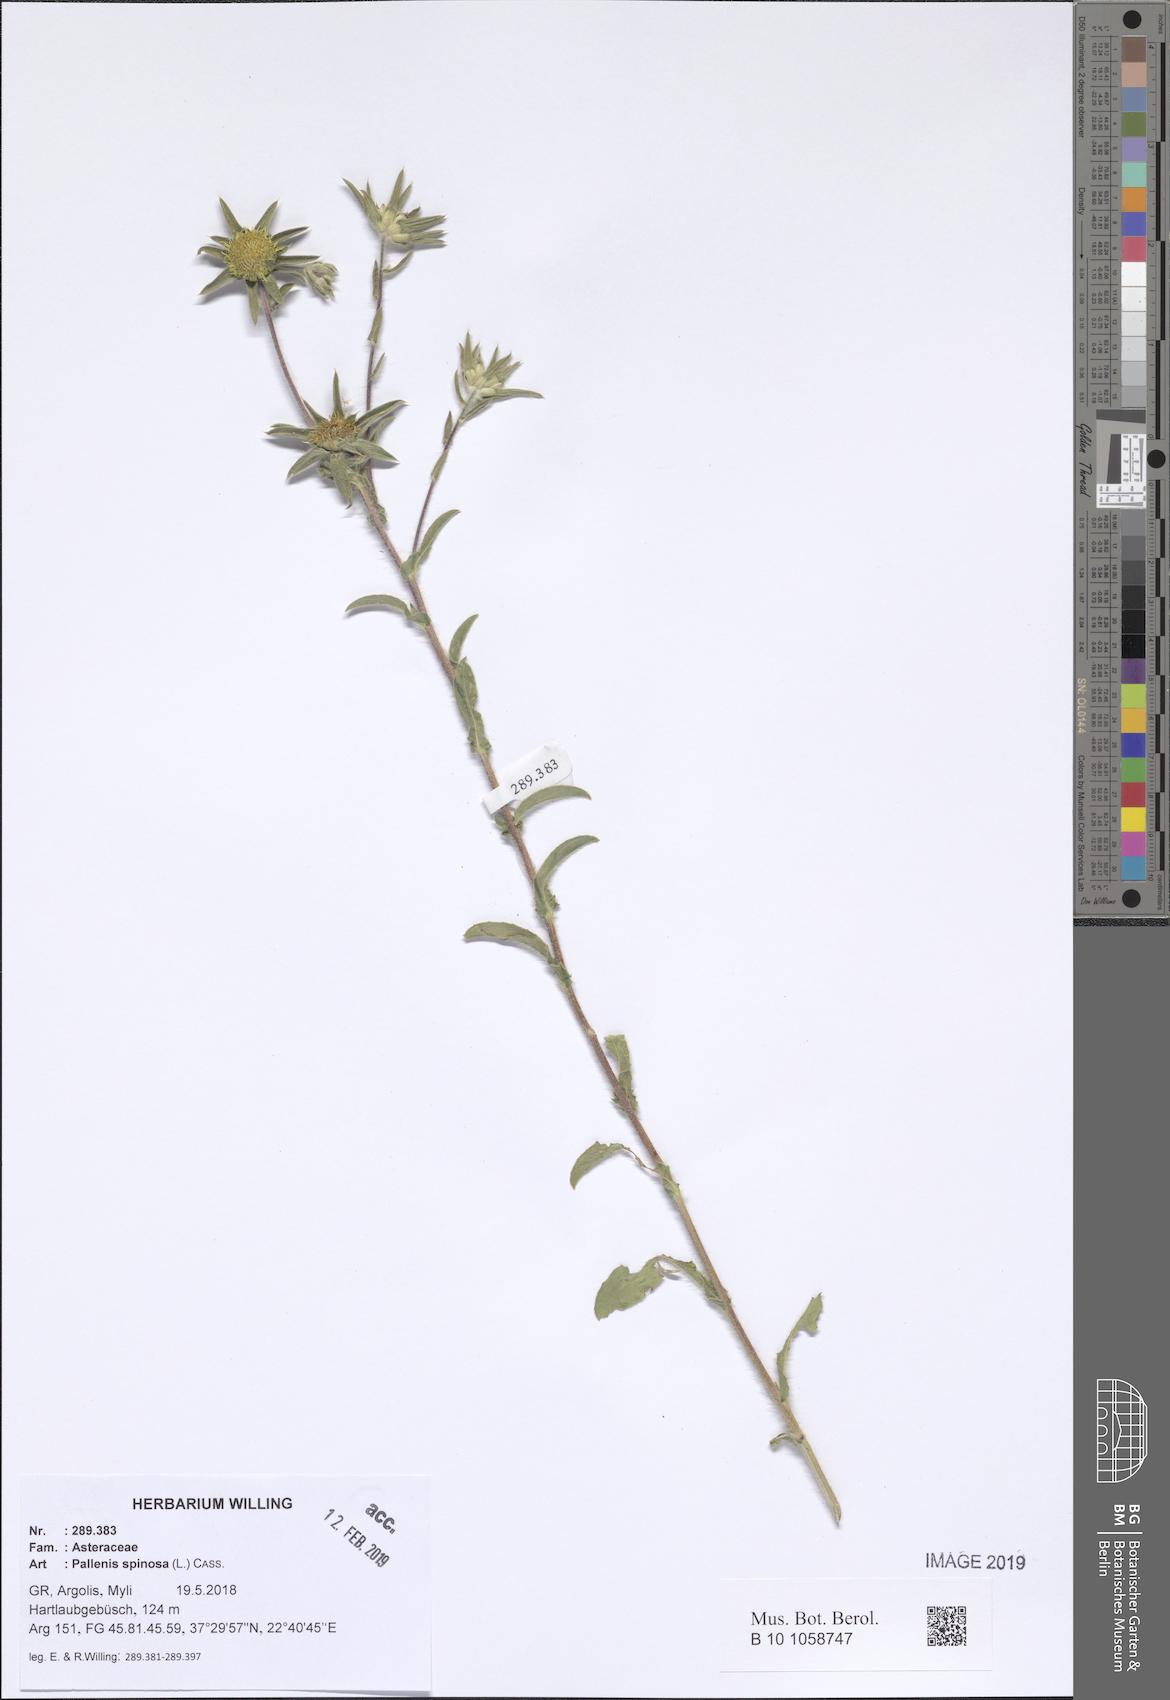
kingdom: Plantae
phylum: Tracheophyta
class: Magnoliopsida
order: Asterales
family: Asteraceae
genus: Pallenis
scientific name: Pallenis spinosa
